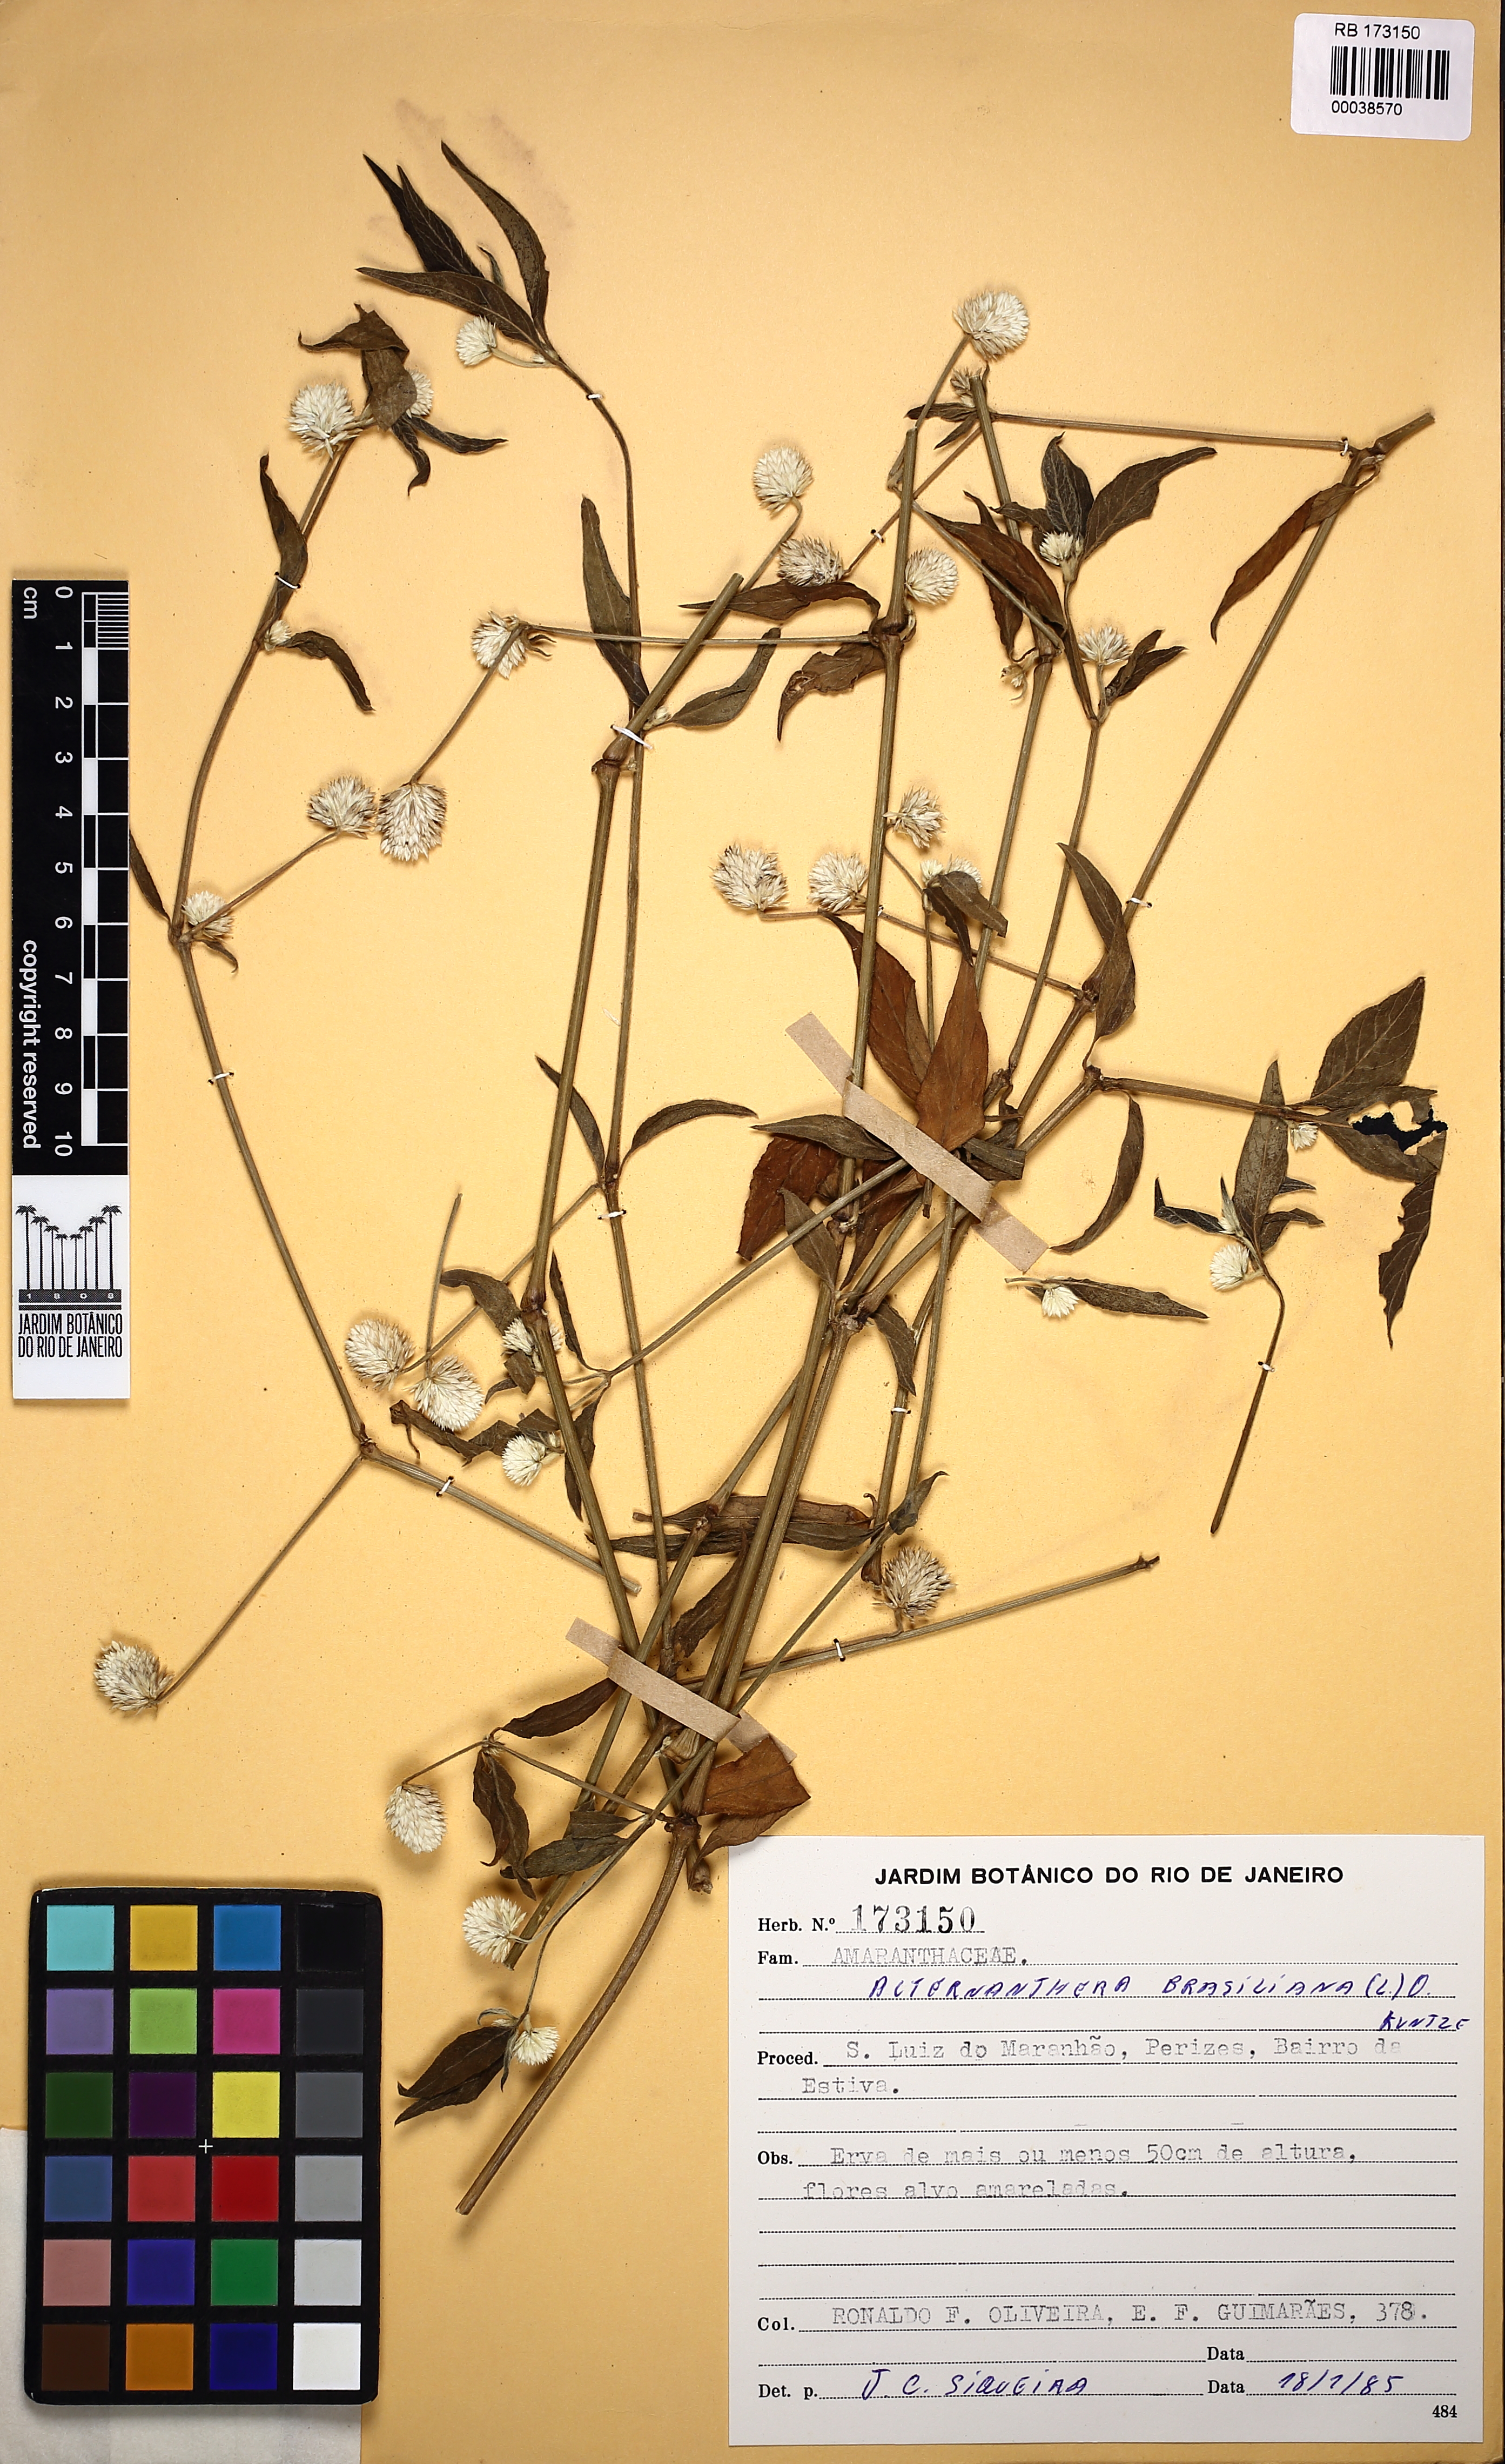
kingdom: Plantae
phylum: Tracheophyta
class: Magnoliopsida
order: Caryophyllales
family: Amaranthaceae
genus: Alternanthera
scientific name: Alternanthera brasiliana
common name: Brazilian joyweed
